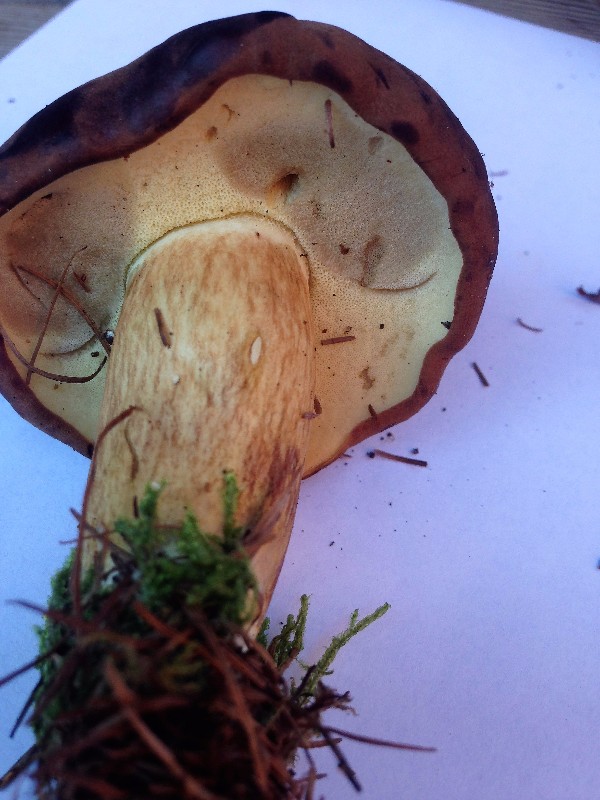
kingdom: Fungi
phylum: Basidiomycota
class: Agaricomycetes
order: Boletales
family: Boletaceae
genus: Imleria
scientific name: Imleria badia
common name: brunstokket rørhat
